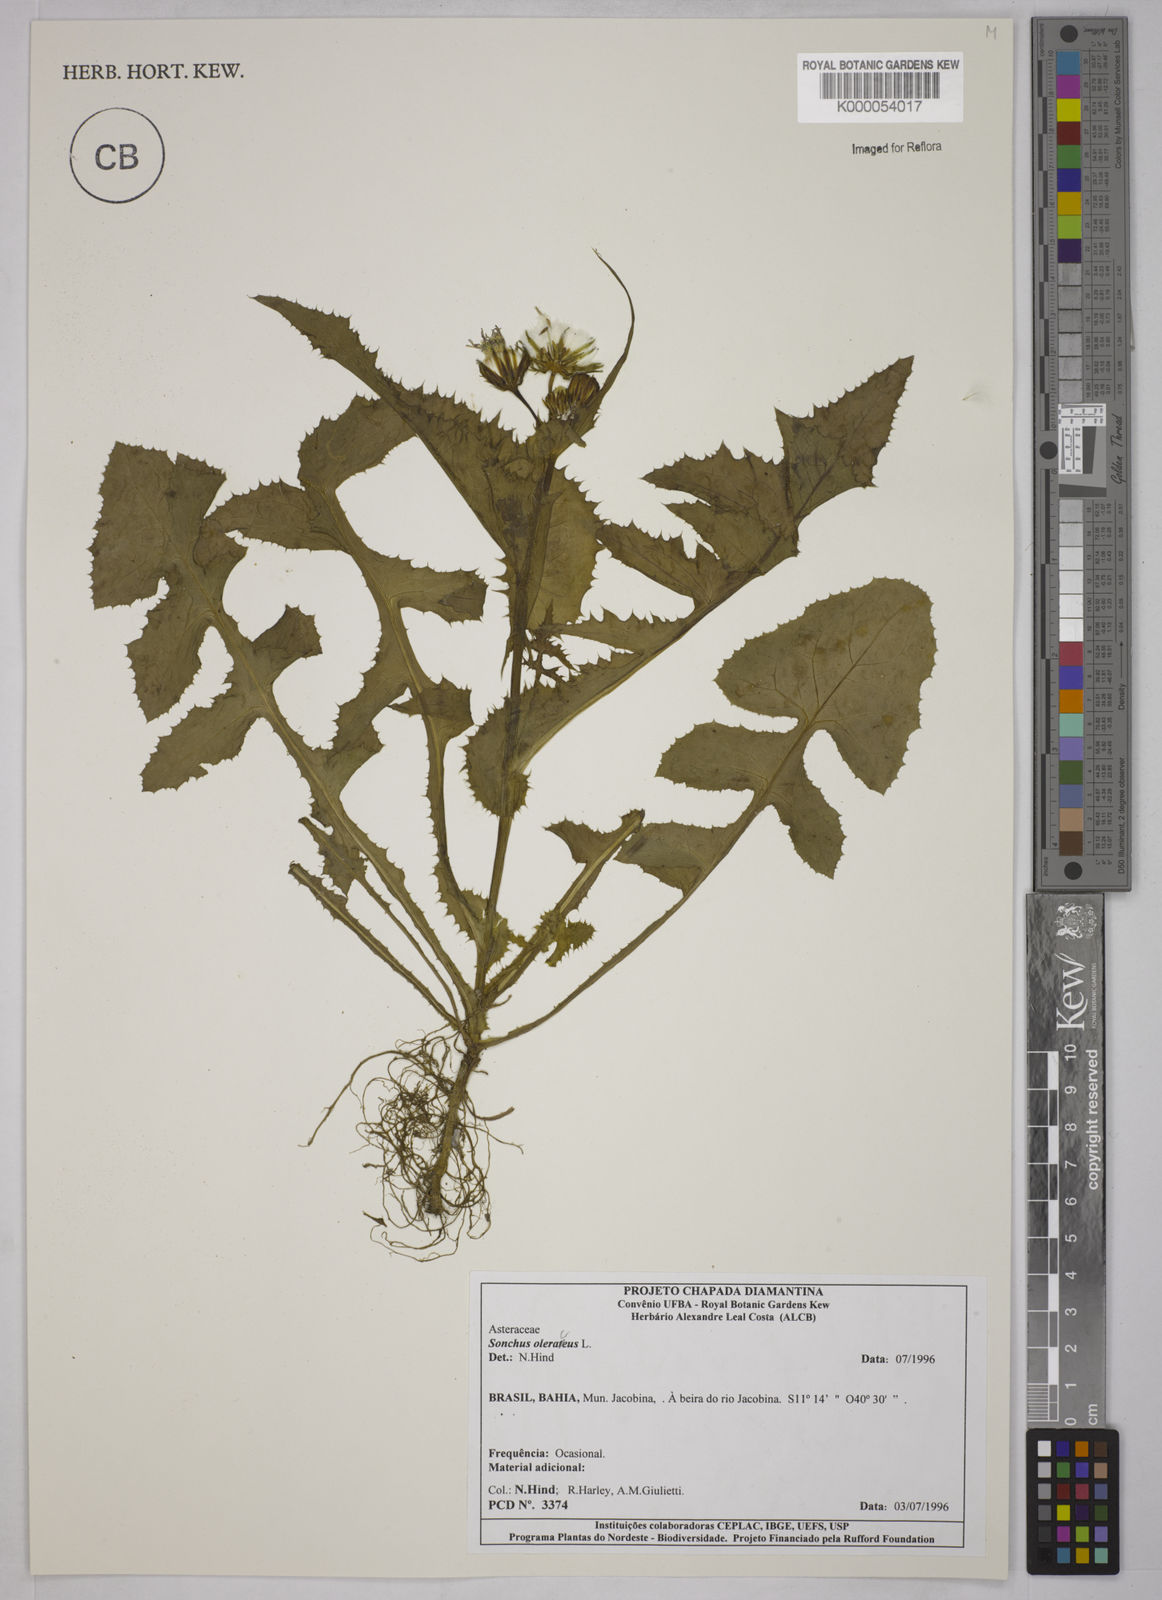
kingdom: Plantae
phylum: Tracheophyta
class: Magnoliopsida
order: Asterales
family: Asteraceae
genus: Sonchus
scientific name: Sonchus oleraceus
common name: Common sowthistle
